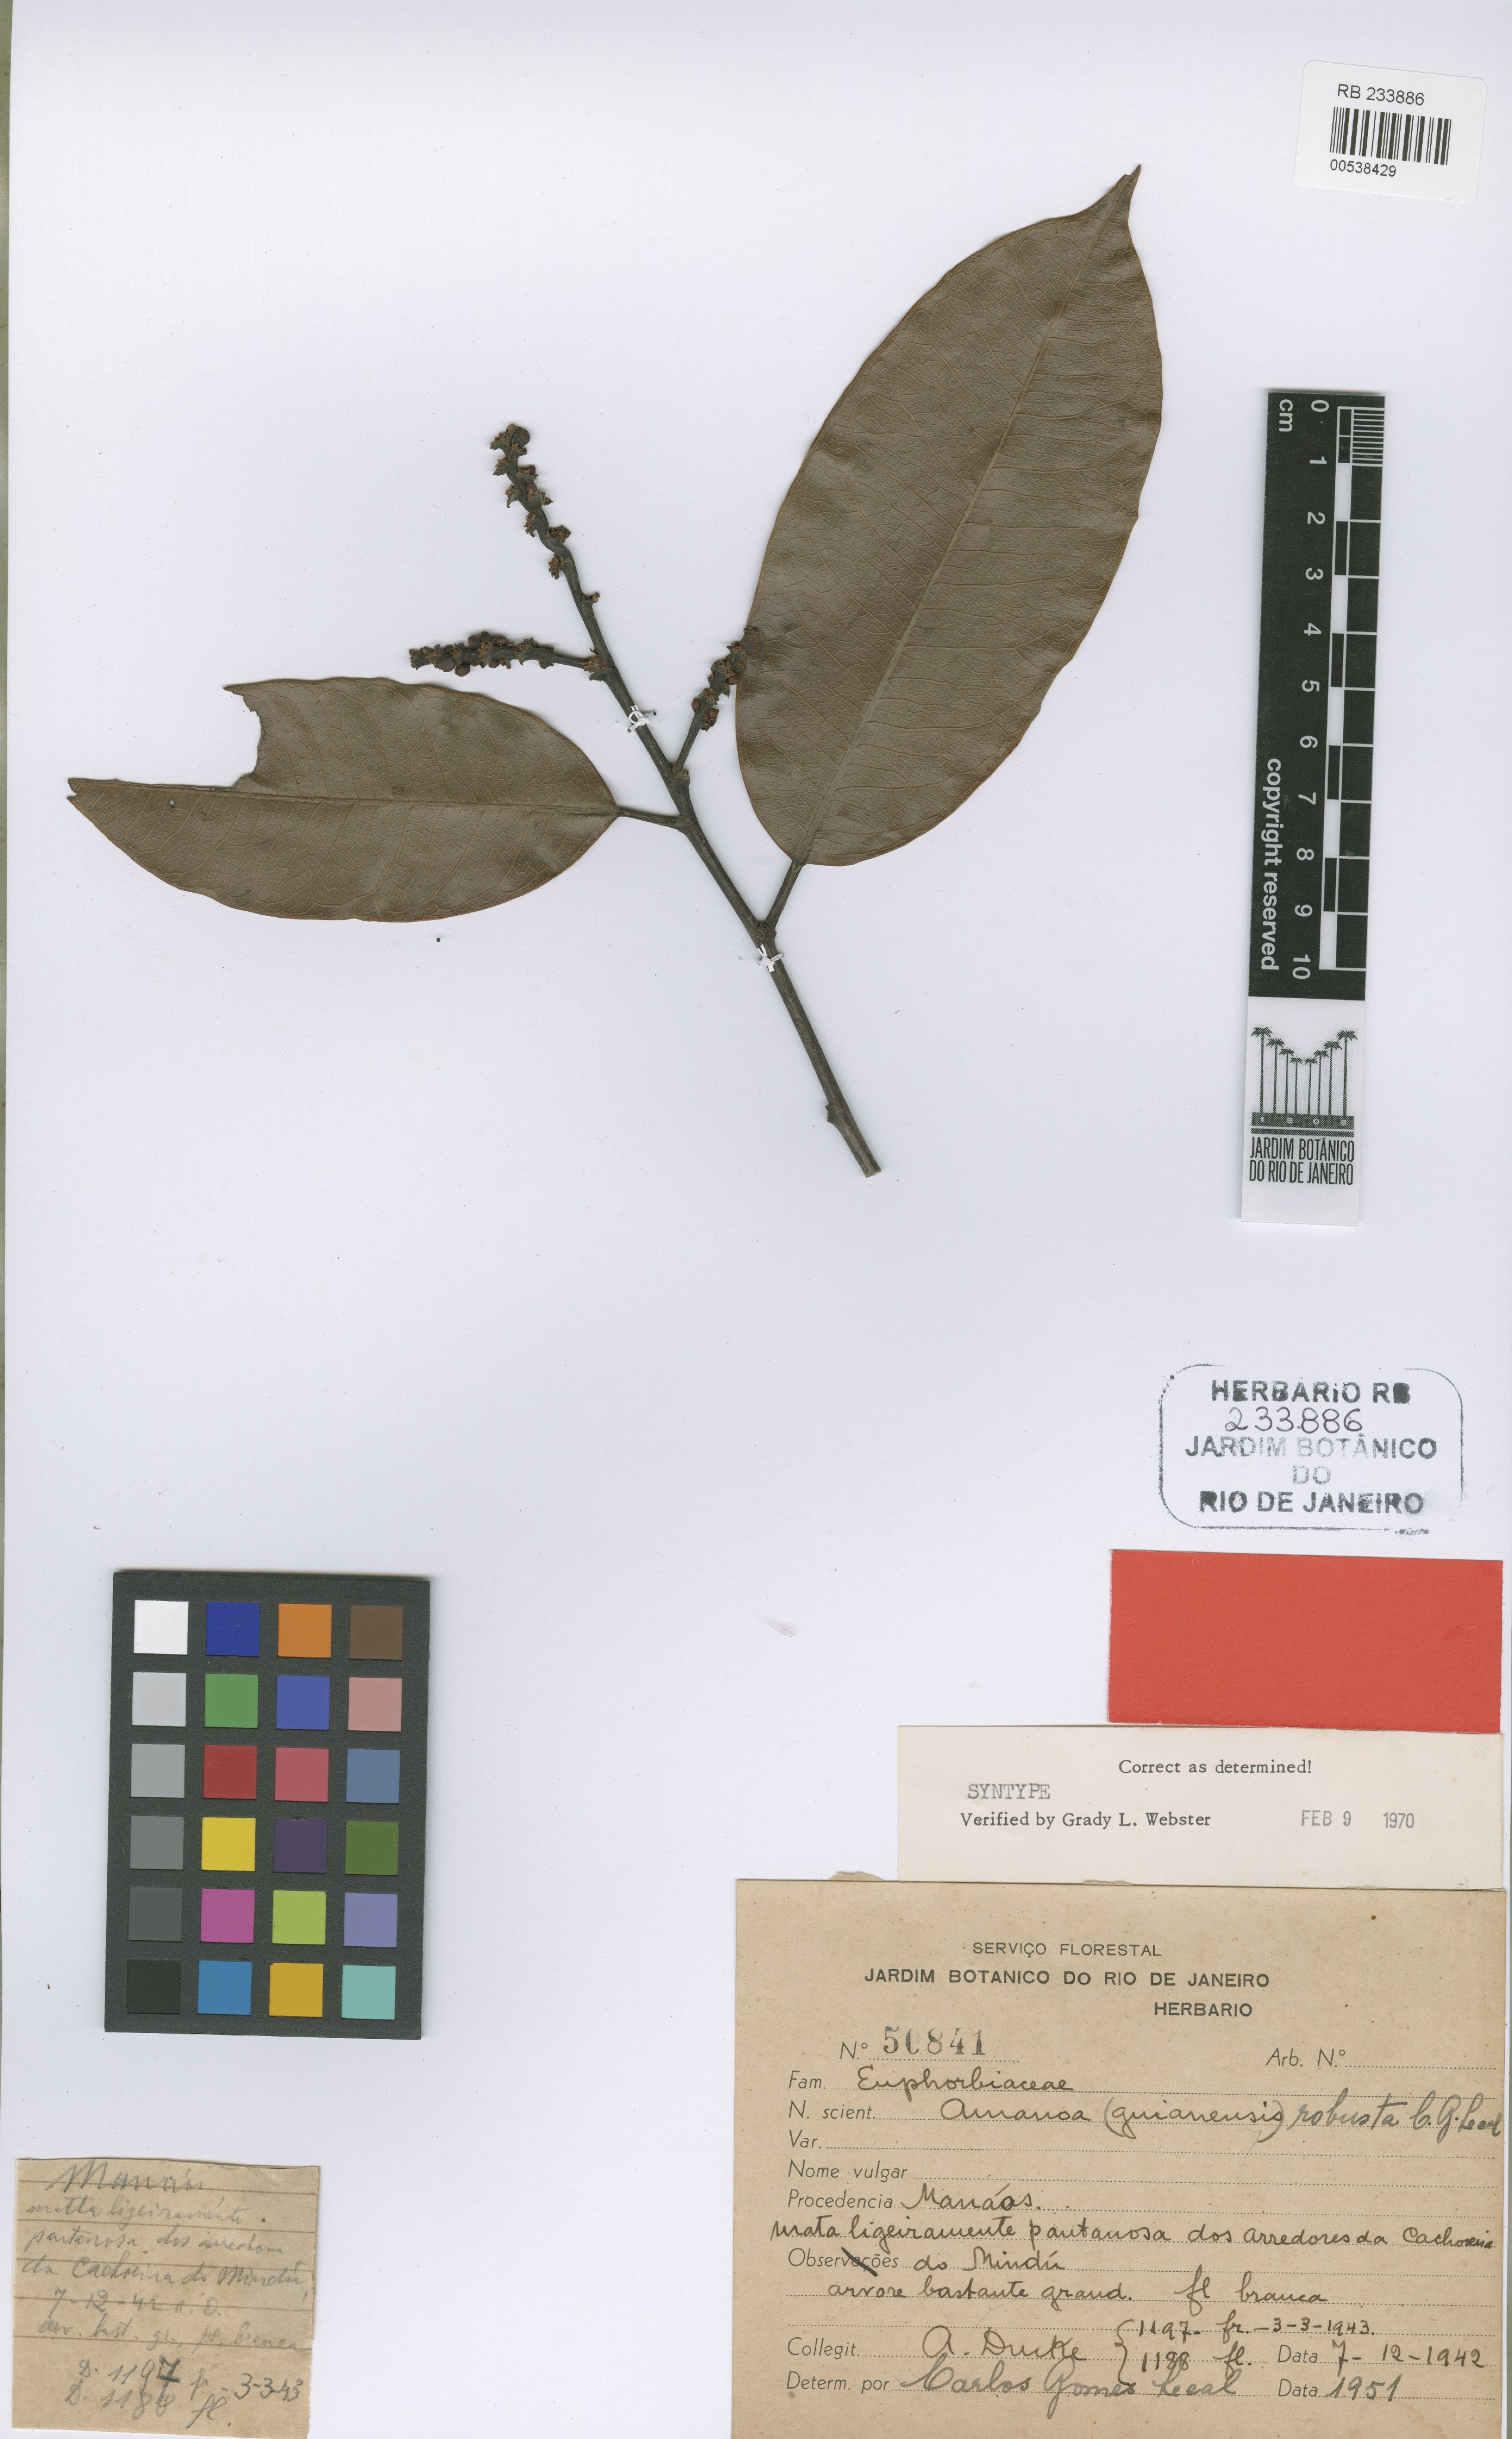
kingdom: Plantae
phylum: Tracheophyta
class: Magnoliopsida
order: Malpighiales
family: Phyllanthaceae
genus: Amanoa
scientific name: Amanoa sinuosa
